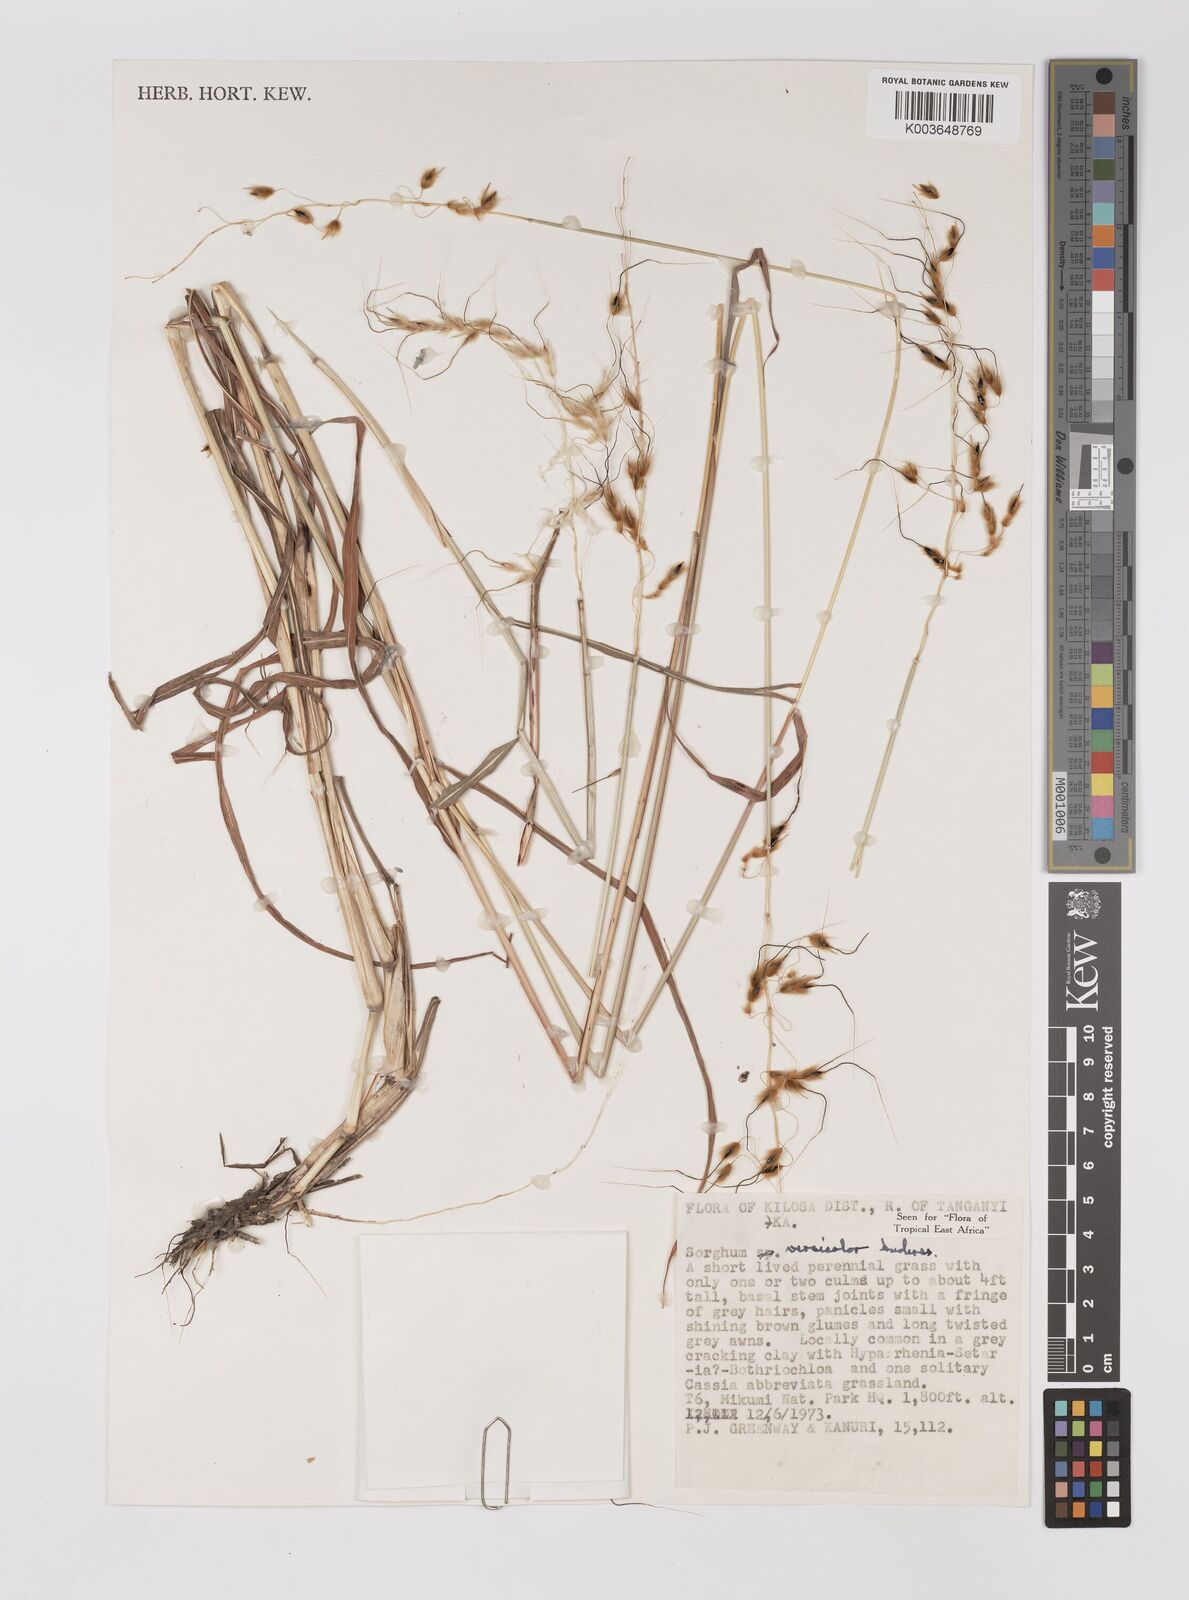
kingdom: Plantae
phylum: Tracheophyta
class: Liliopsida
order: Poales
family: Poaceae
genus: Sarga
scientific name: Sarga versicolor
